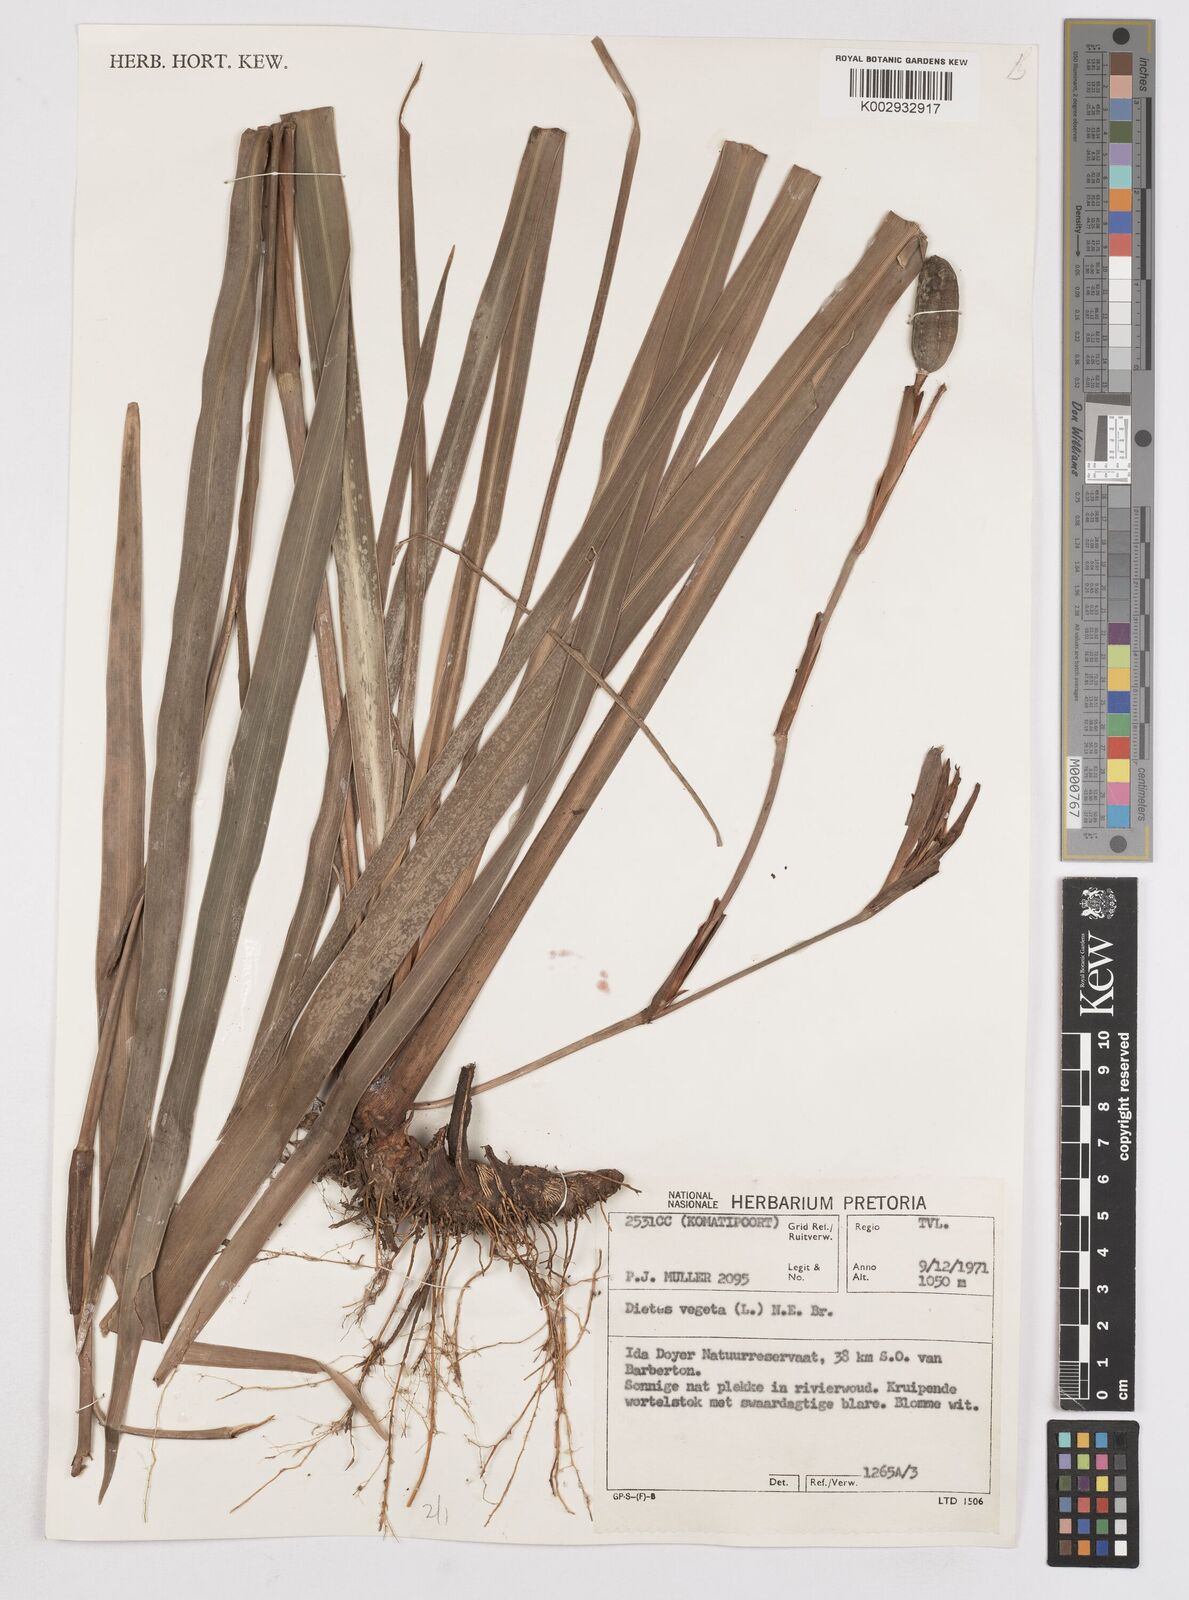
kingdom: Plantae
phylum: Tracheophyta
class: Liliopsida
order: Asparagales
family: Iridaceae
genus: Dietes
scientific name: Dietes iridioides
